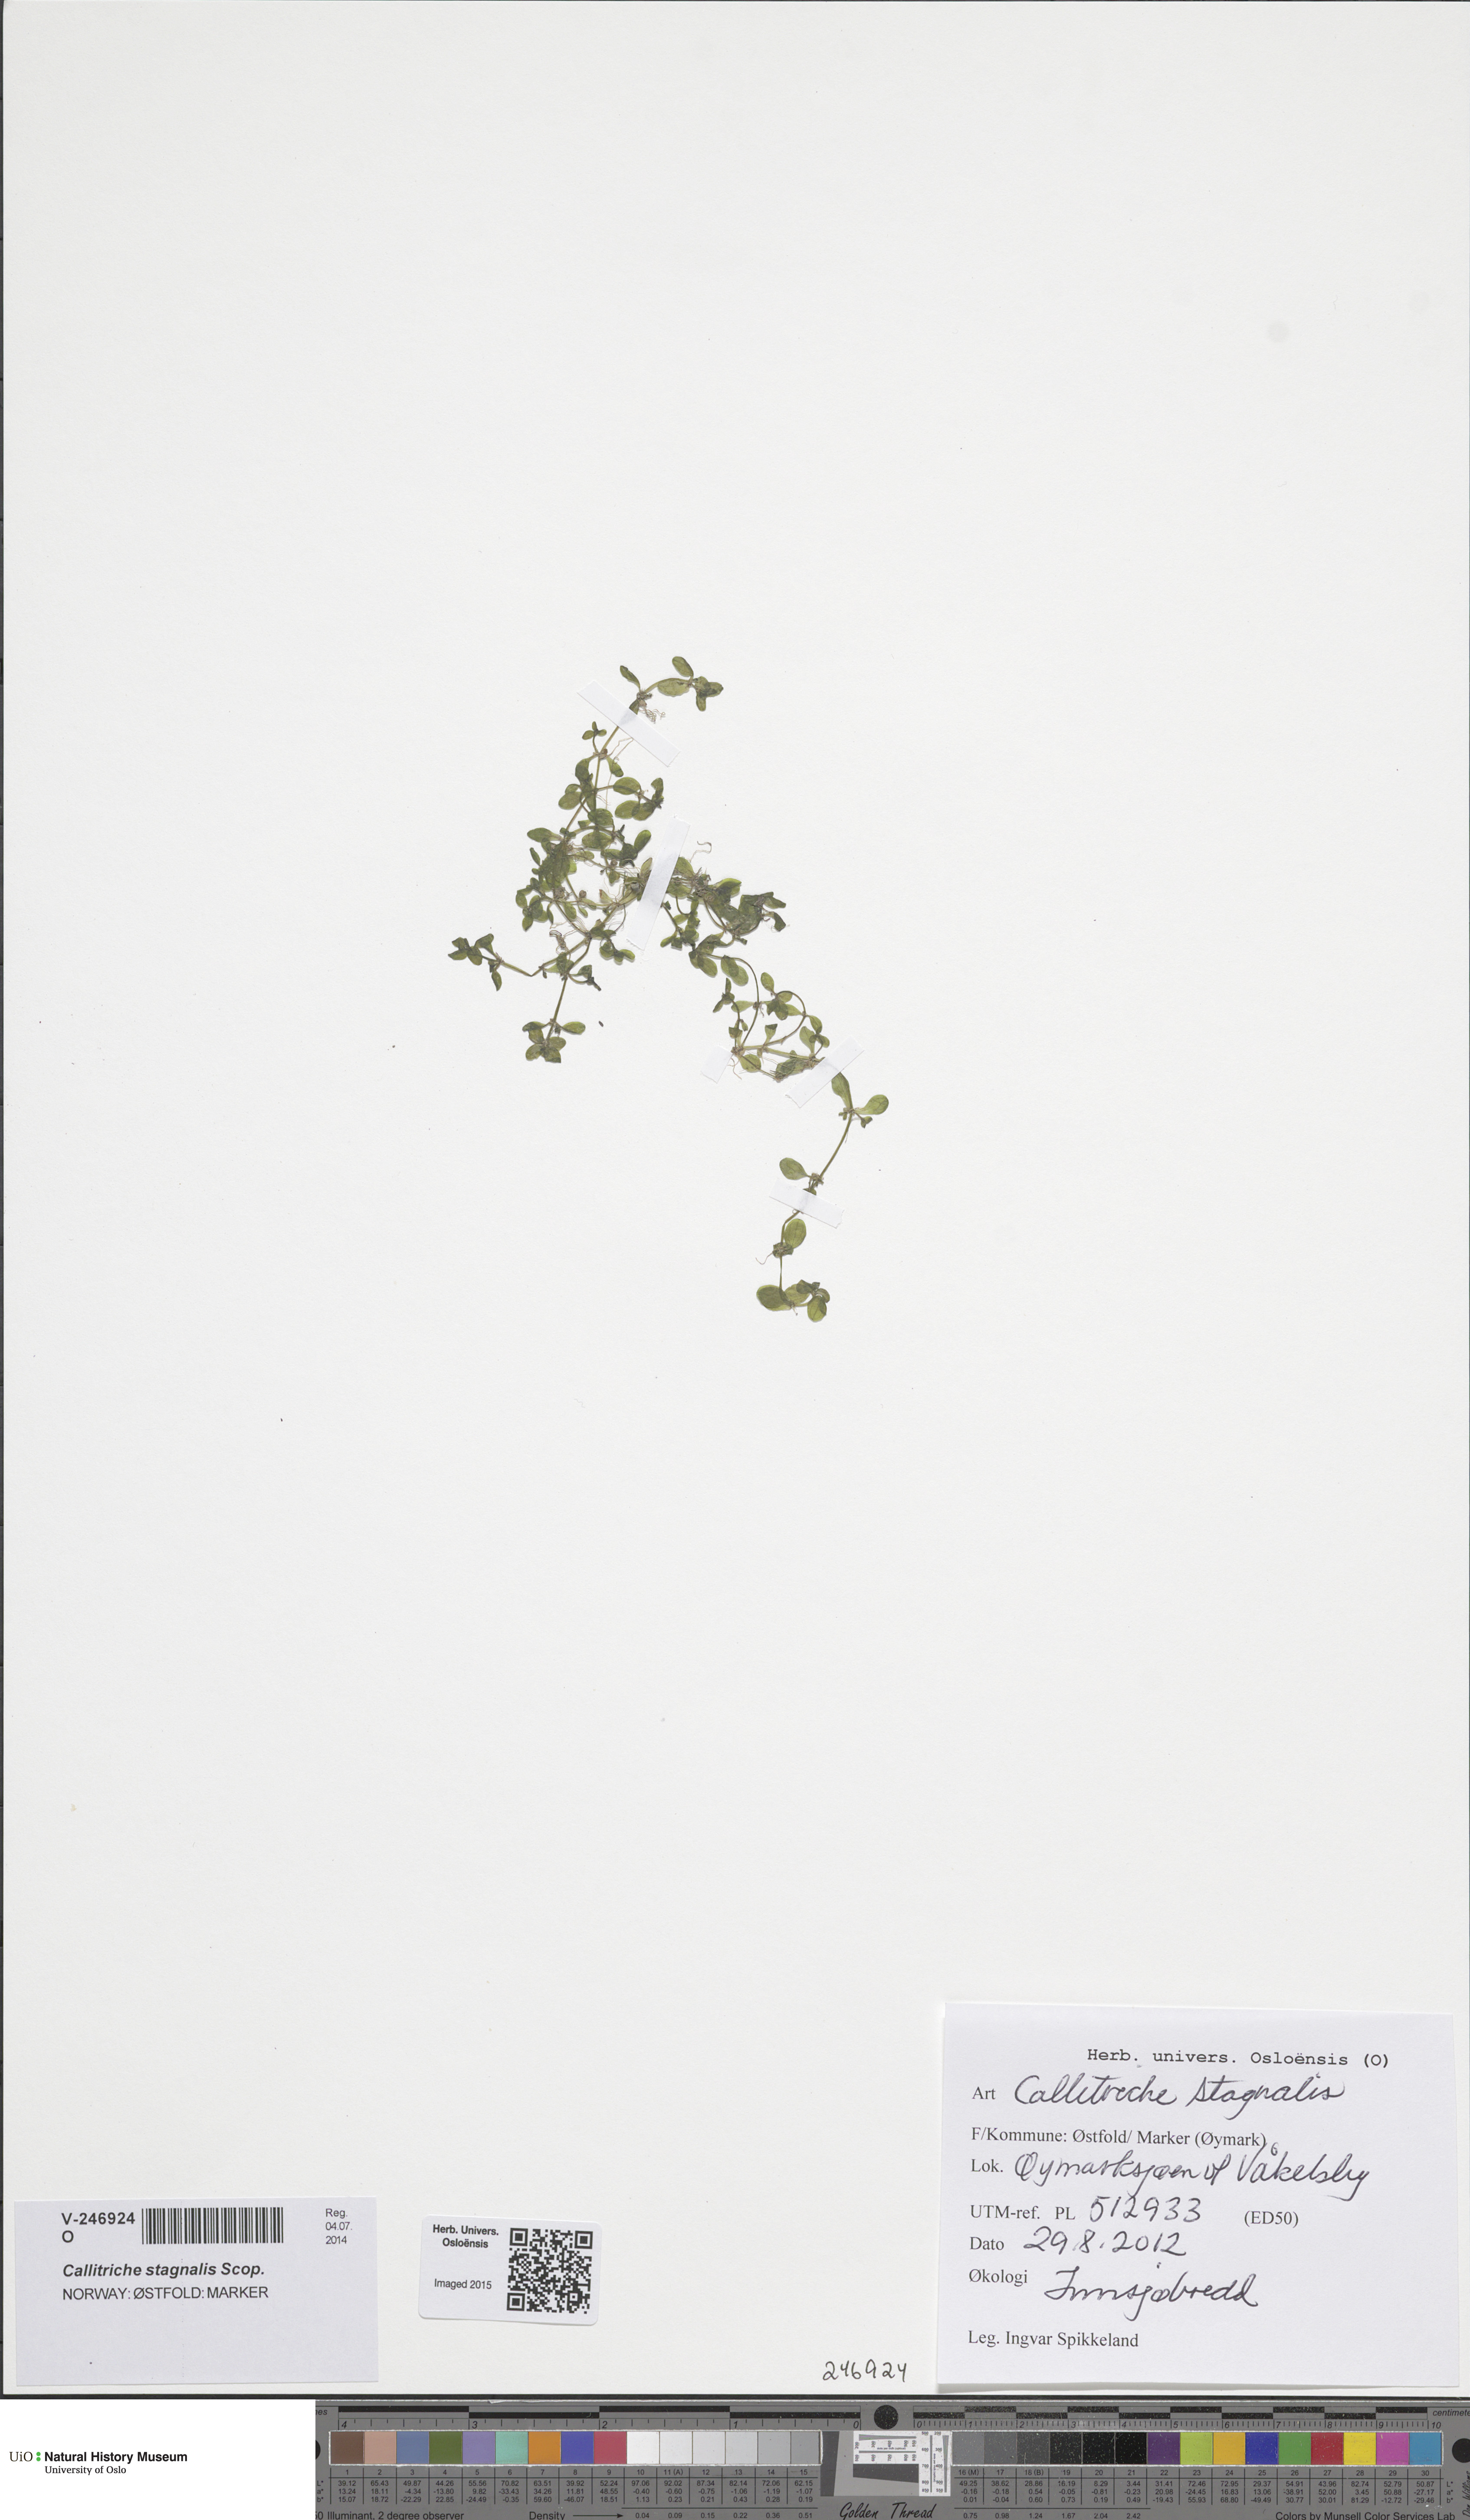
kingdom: Plantae
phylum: Tracheophyta
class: Magnoliopsida
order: Lamiales
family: Plantaginaceae
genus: Callitriche
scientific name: Callitriche stagnalis
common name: Common water-starwort
